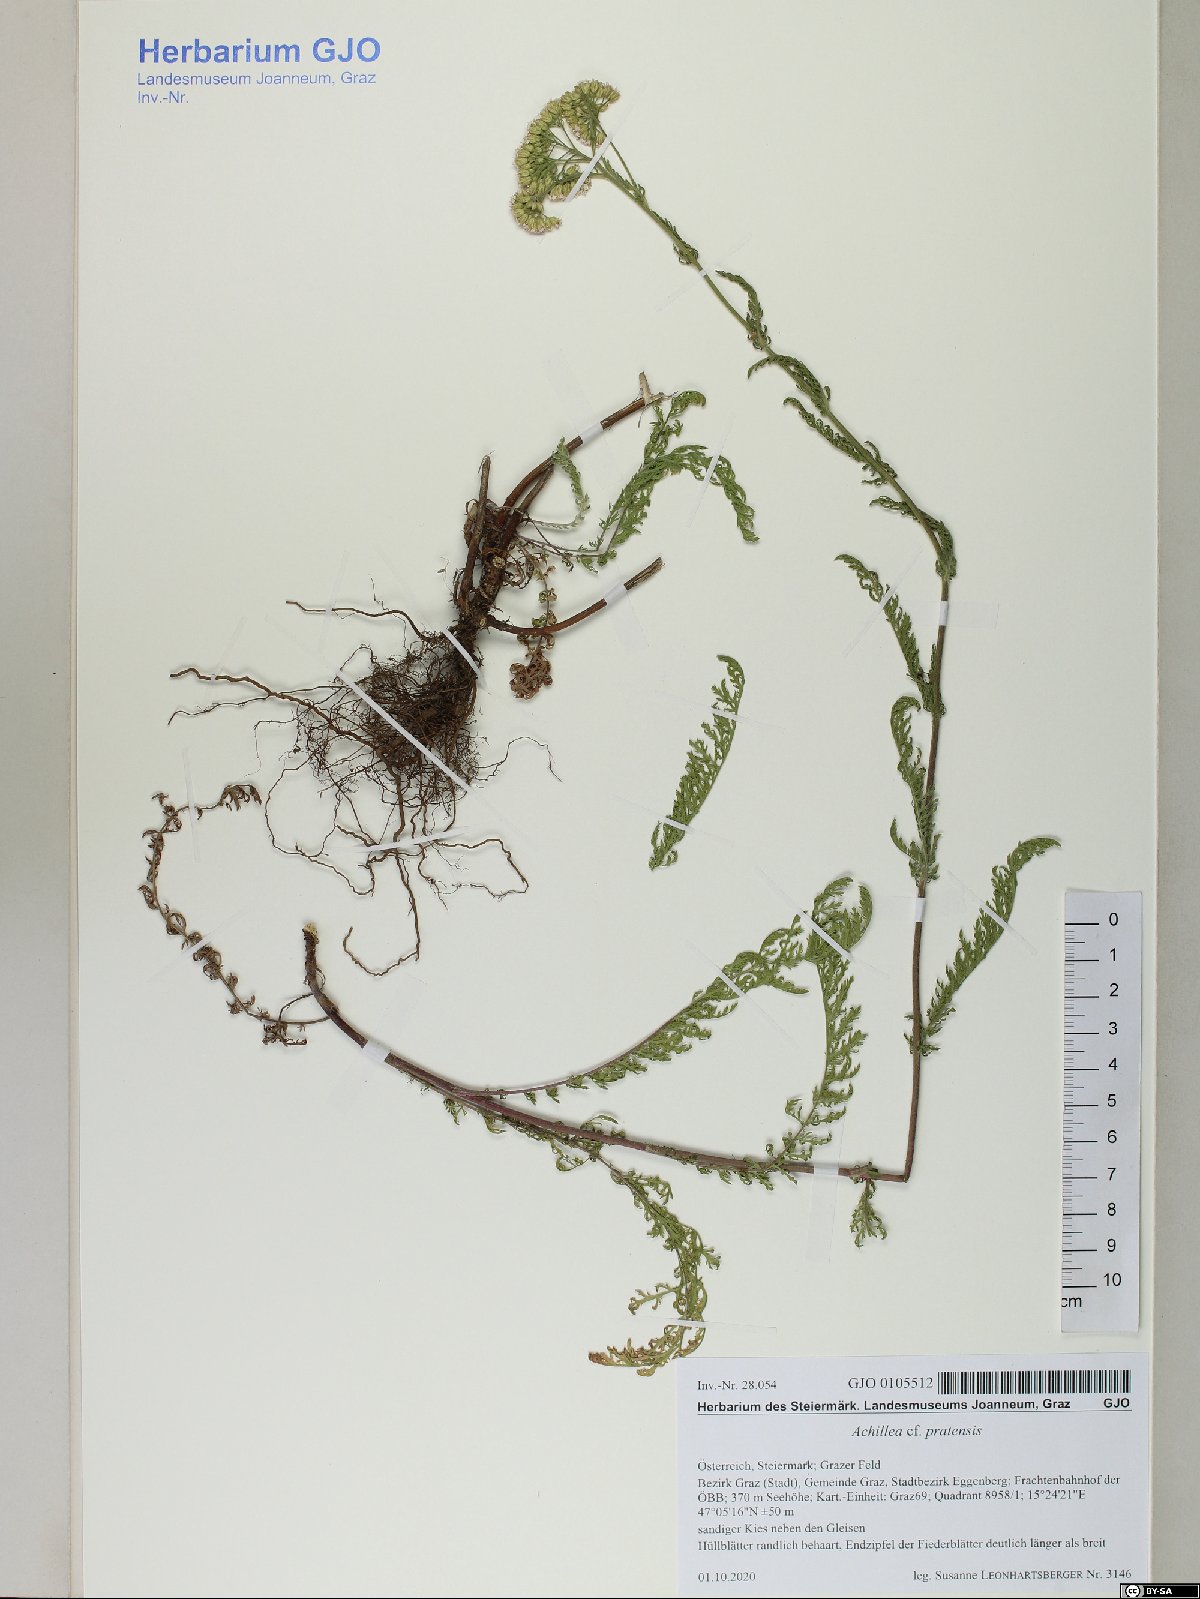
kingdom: Plantae
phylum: Tracheophyta
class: Magnoliopsida
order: Asterales
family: Asteraceae
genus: Achillea
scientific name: Achillea pratensis
